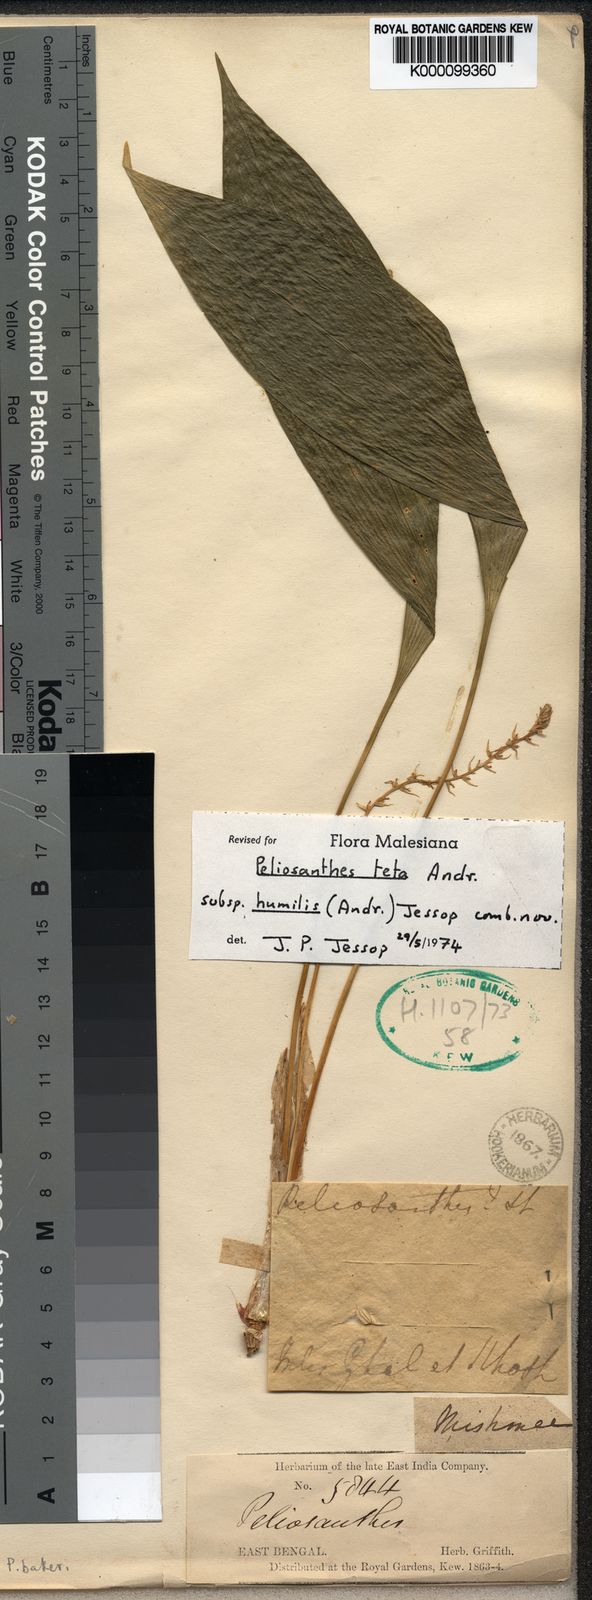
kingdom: Plantae
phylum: Tracheophyta
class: Liliopsida
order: Asparagales
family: Asparagaceae
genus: Peliosanthes
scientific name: Peliosanthes griffithii
